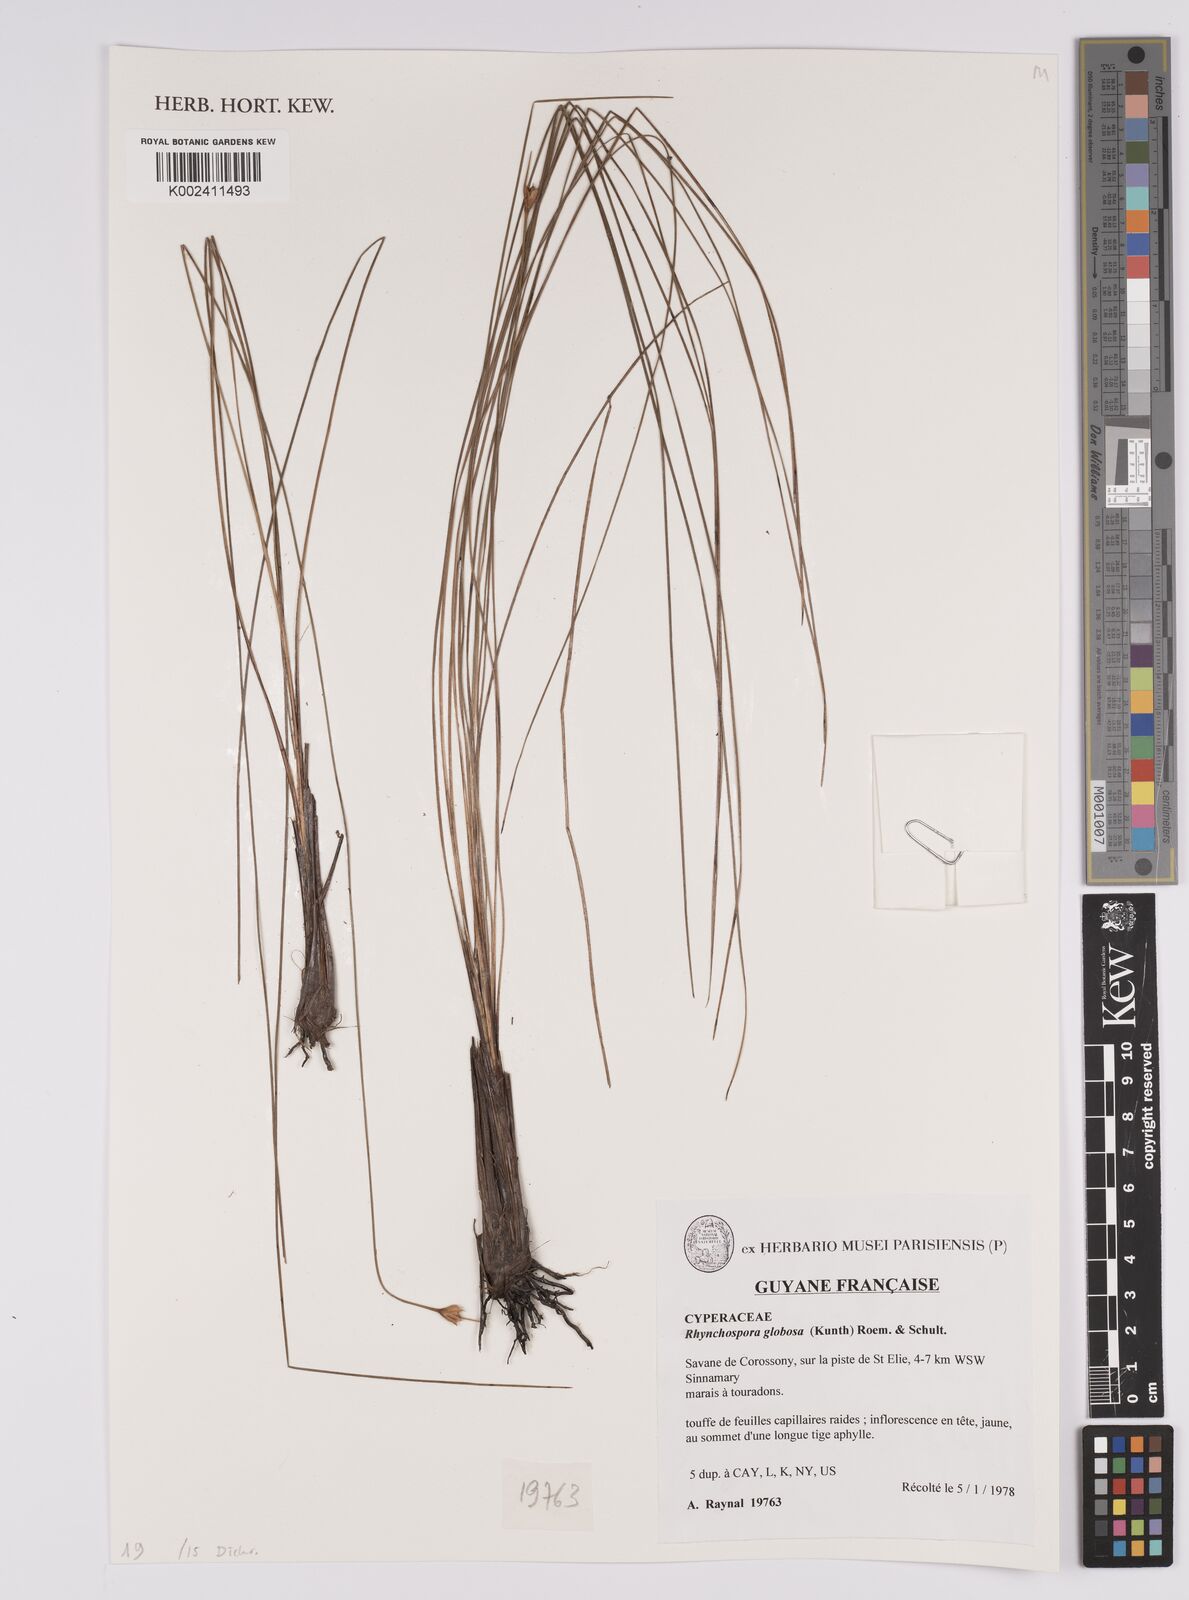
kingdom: Plantae
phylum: Tracheophyta
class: Liliopsida
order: Poales
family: Cyperaceae
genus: Rhynchospora
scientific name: Rhynchospora globosa
